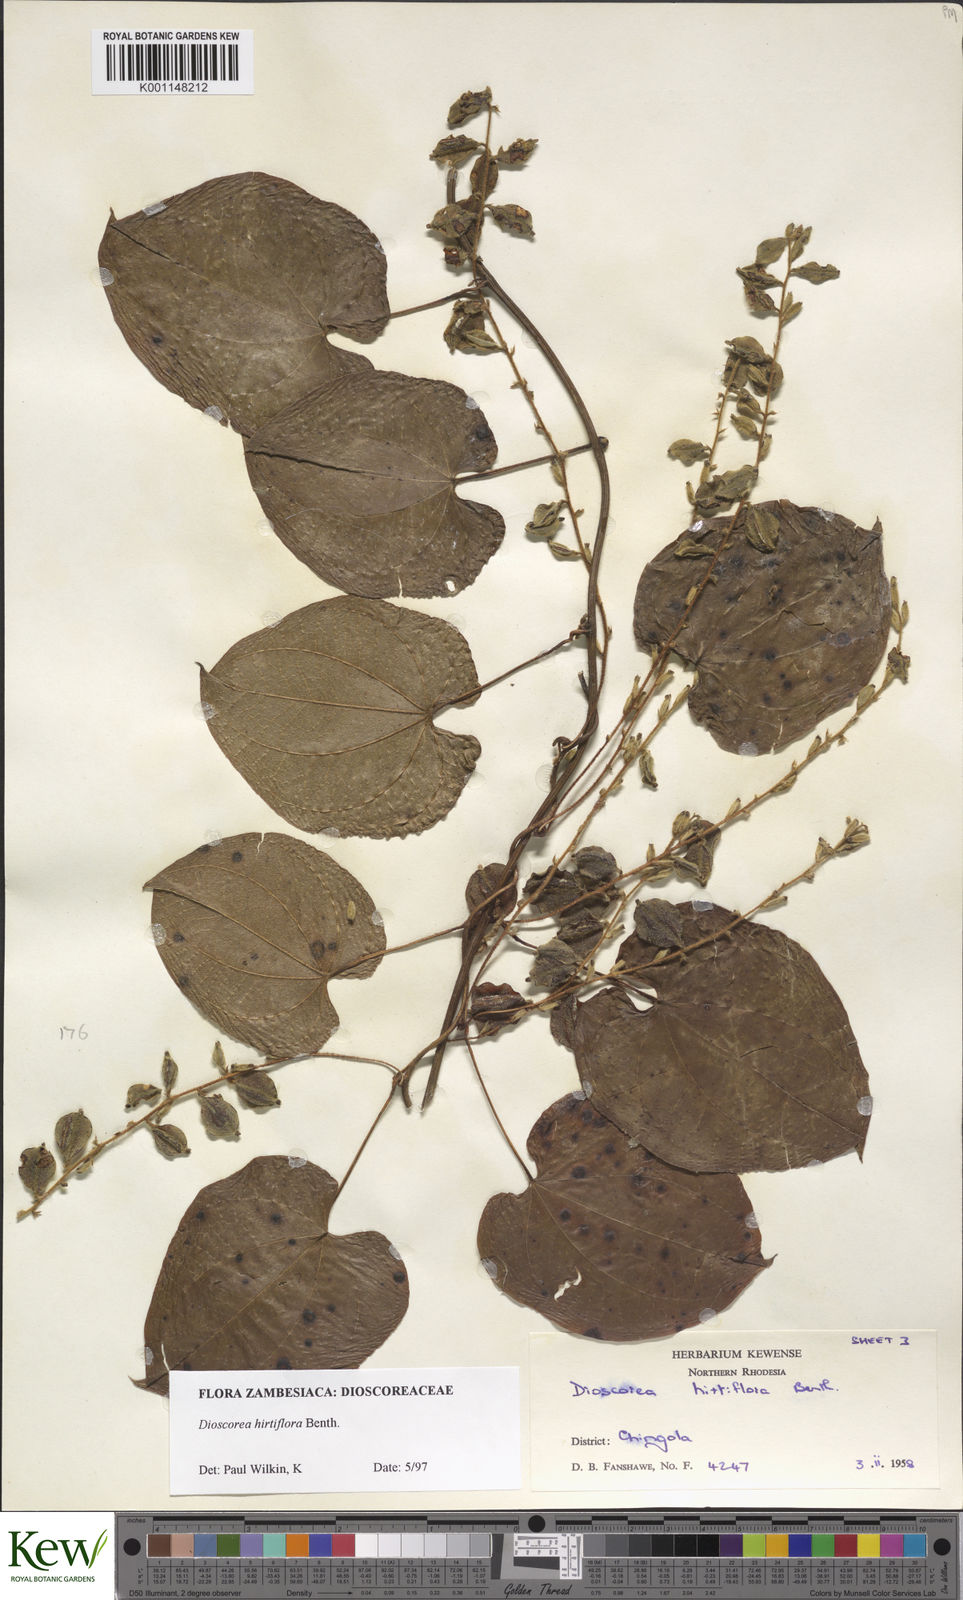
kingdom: Plantae
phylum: Tracheophyta
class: Liliopsida
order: Dioscoreales
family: Dioscoreaceae
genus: Dioscorea
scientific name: Dioscorea hirtiflora
